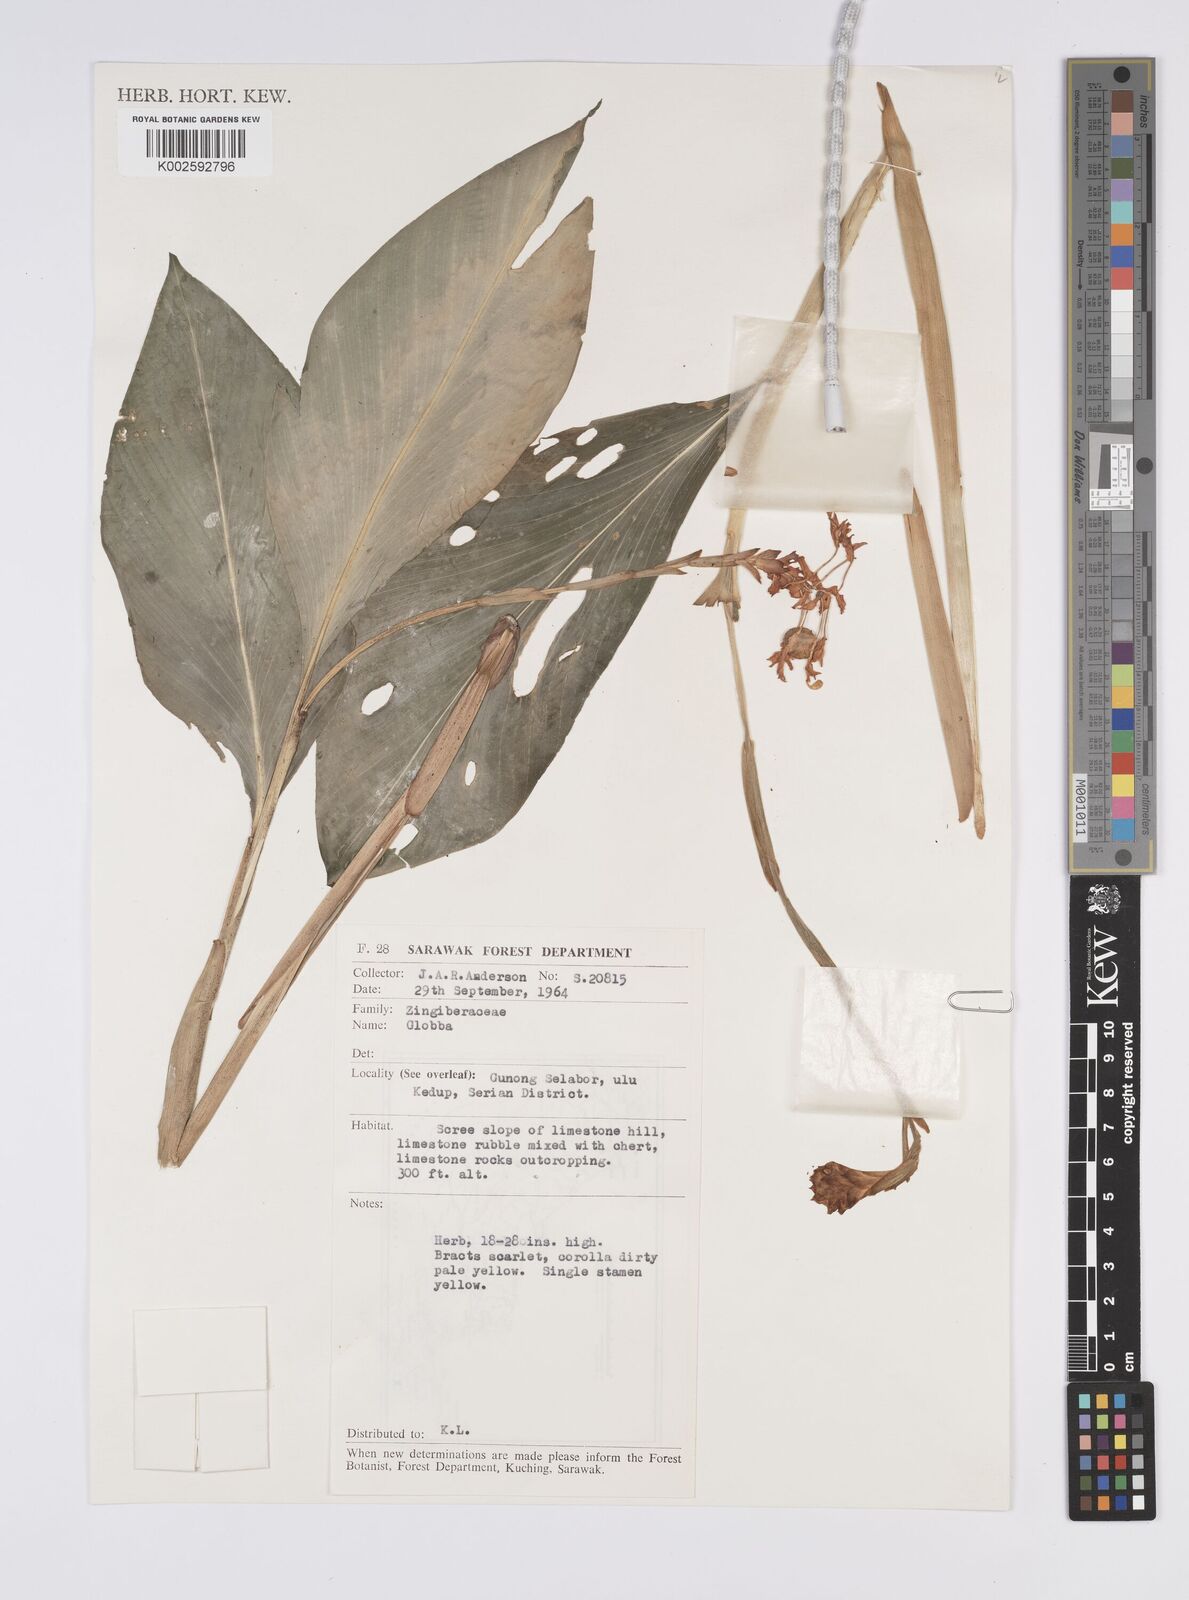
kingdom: Plantae
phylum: Tracheophyta
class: Liliopsida
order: Zingiberales
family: Zingiberaceae
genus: Globba
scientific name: Globba atrosanguinea
